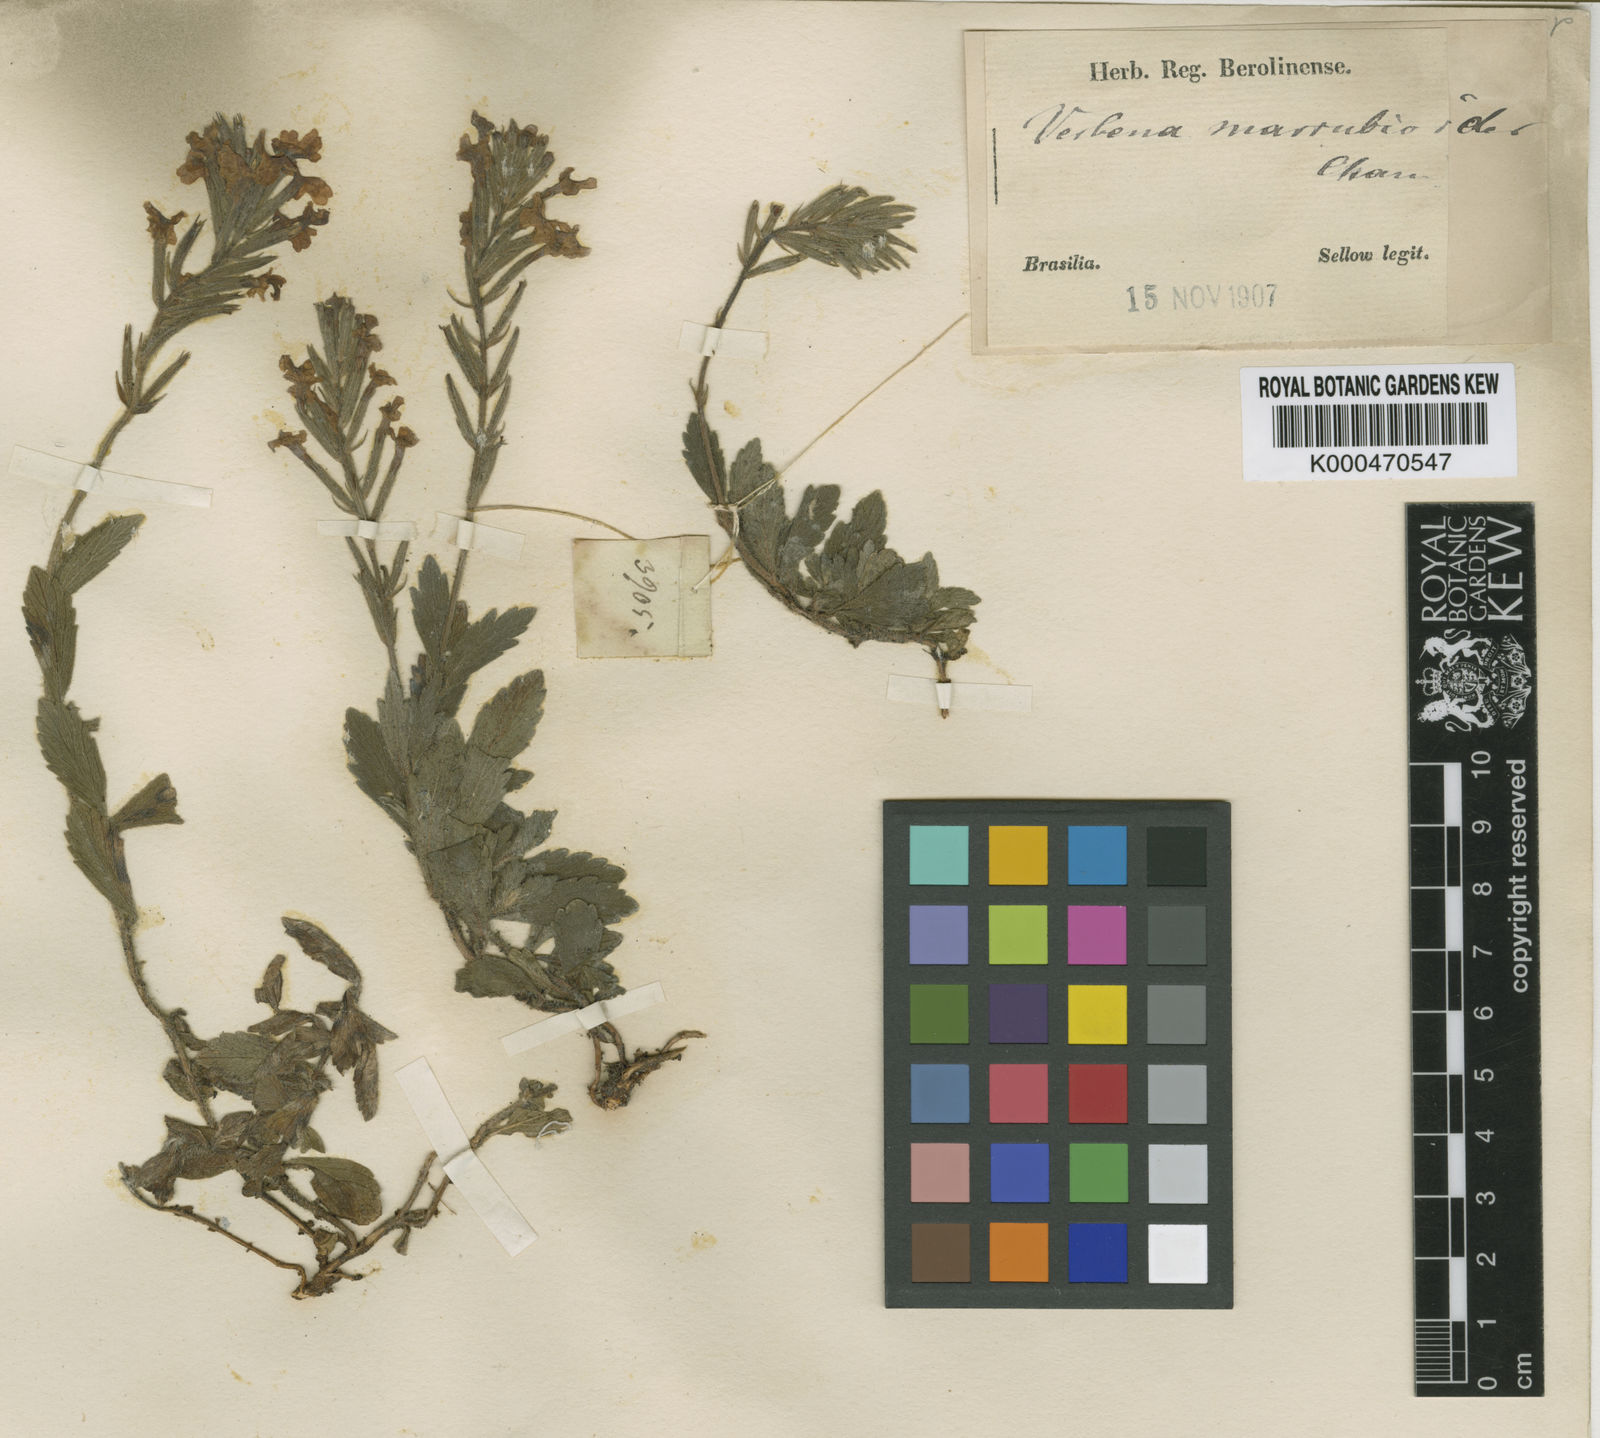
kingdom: Plantae
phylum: Tracheophyta
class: Magnoliopsida
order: Lamiales
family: Verbenaceae
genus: Verbena
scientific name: Verbena marrubioides
